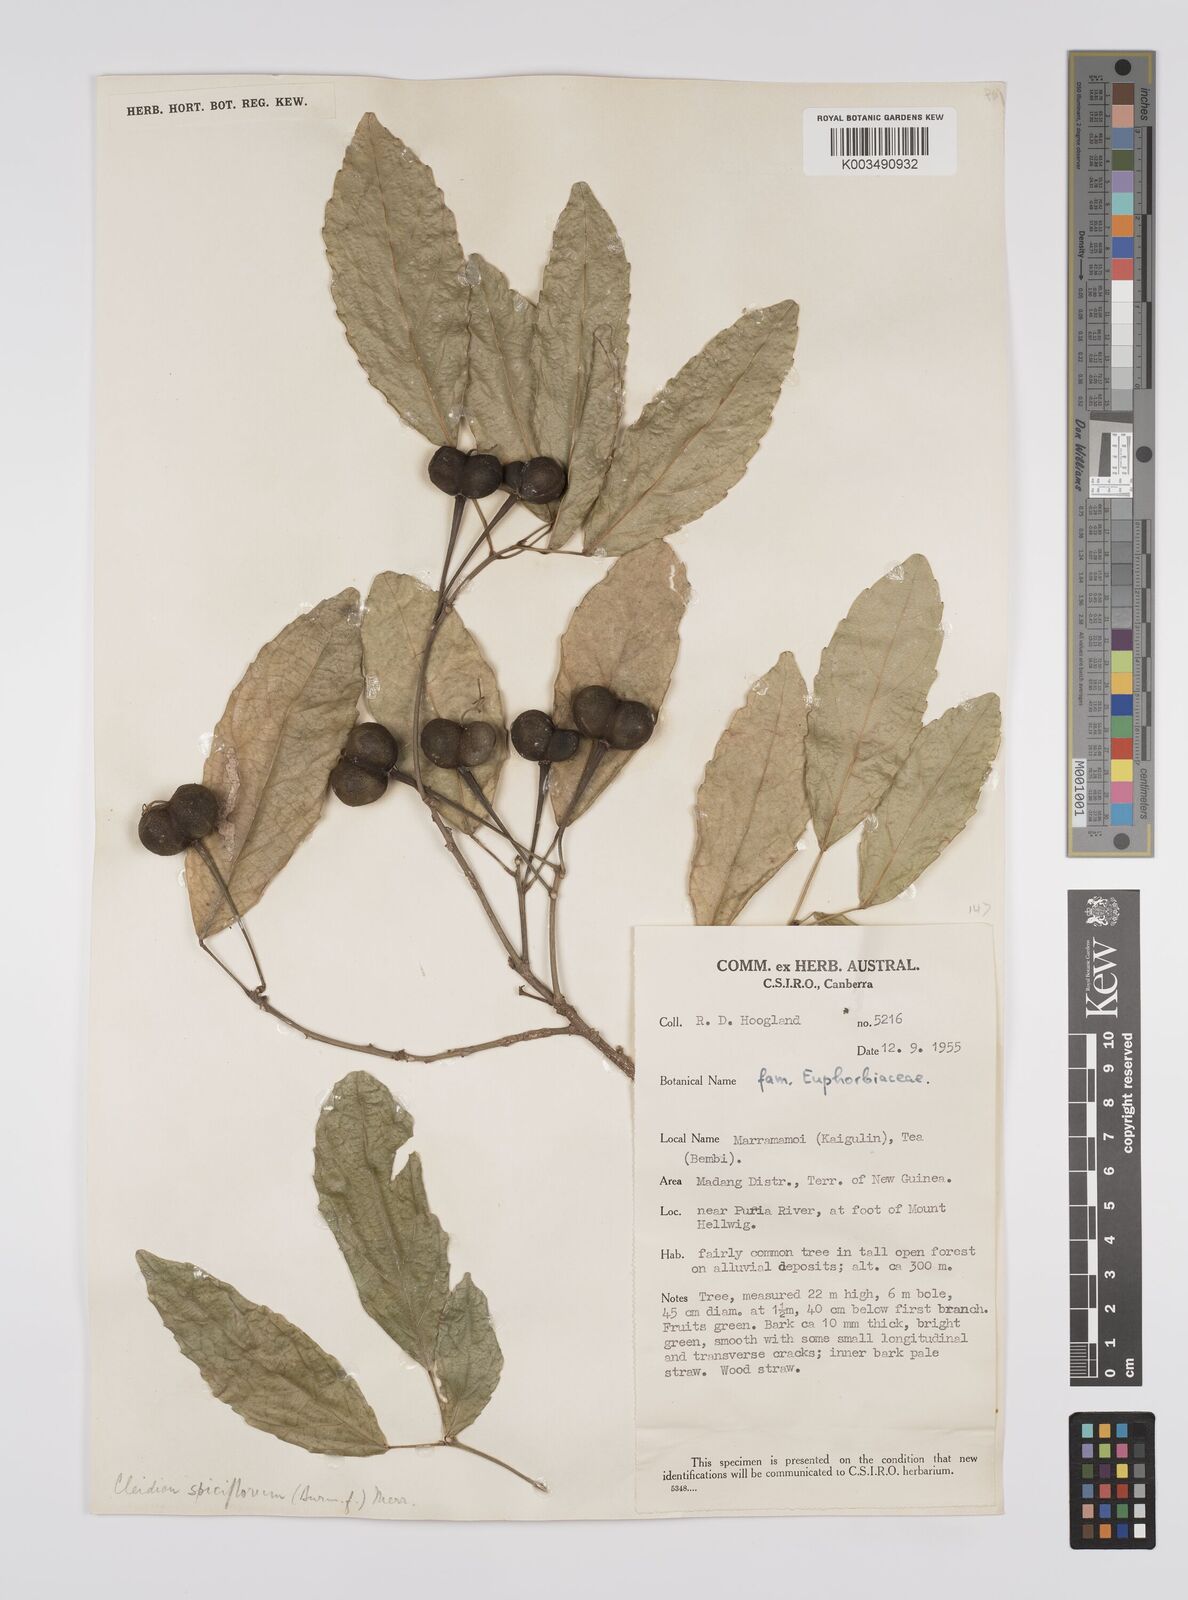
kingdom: Plantae
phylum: Tracheophyta
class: Magnoliopsida
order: Malpighiales
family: Euphorbiaceae
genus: Cleidion
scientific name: Cleidion javanicum
